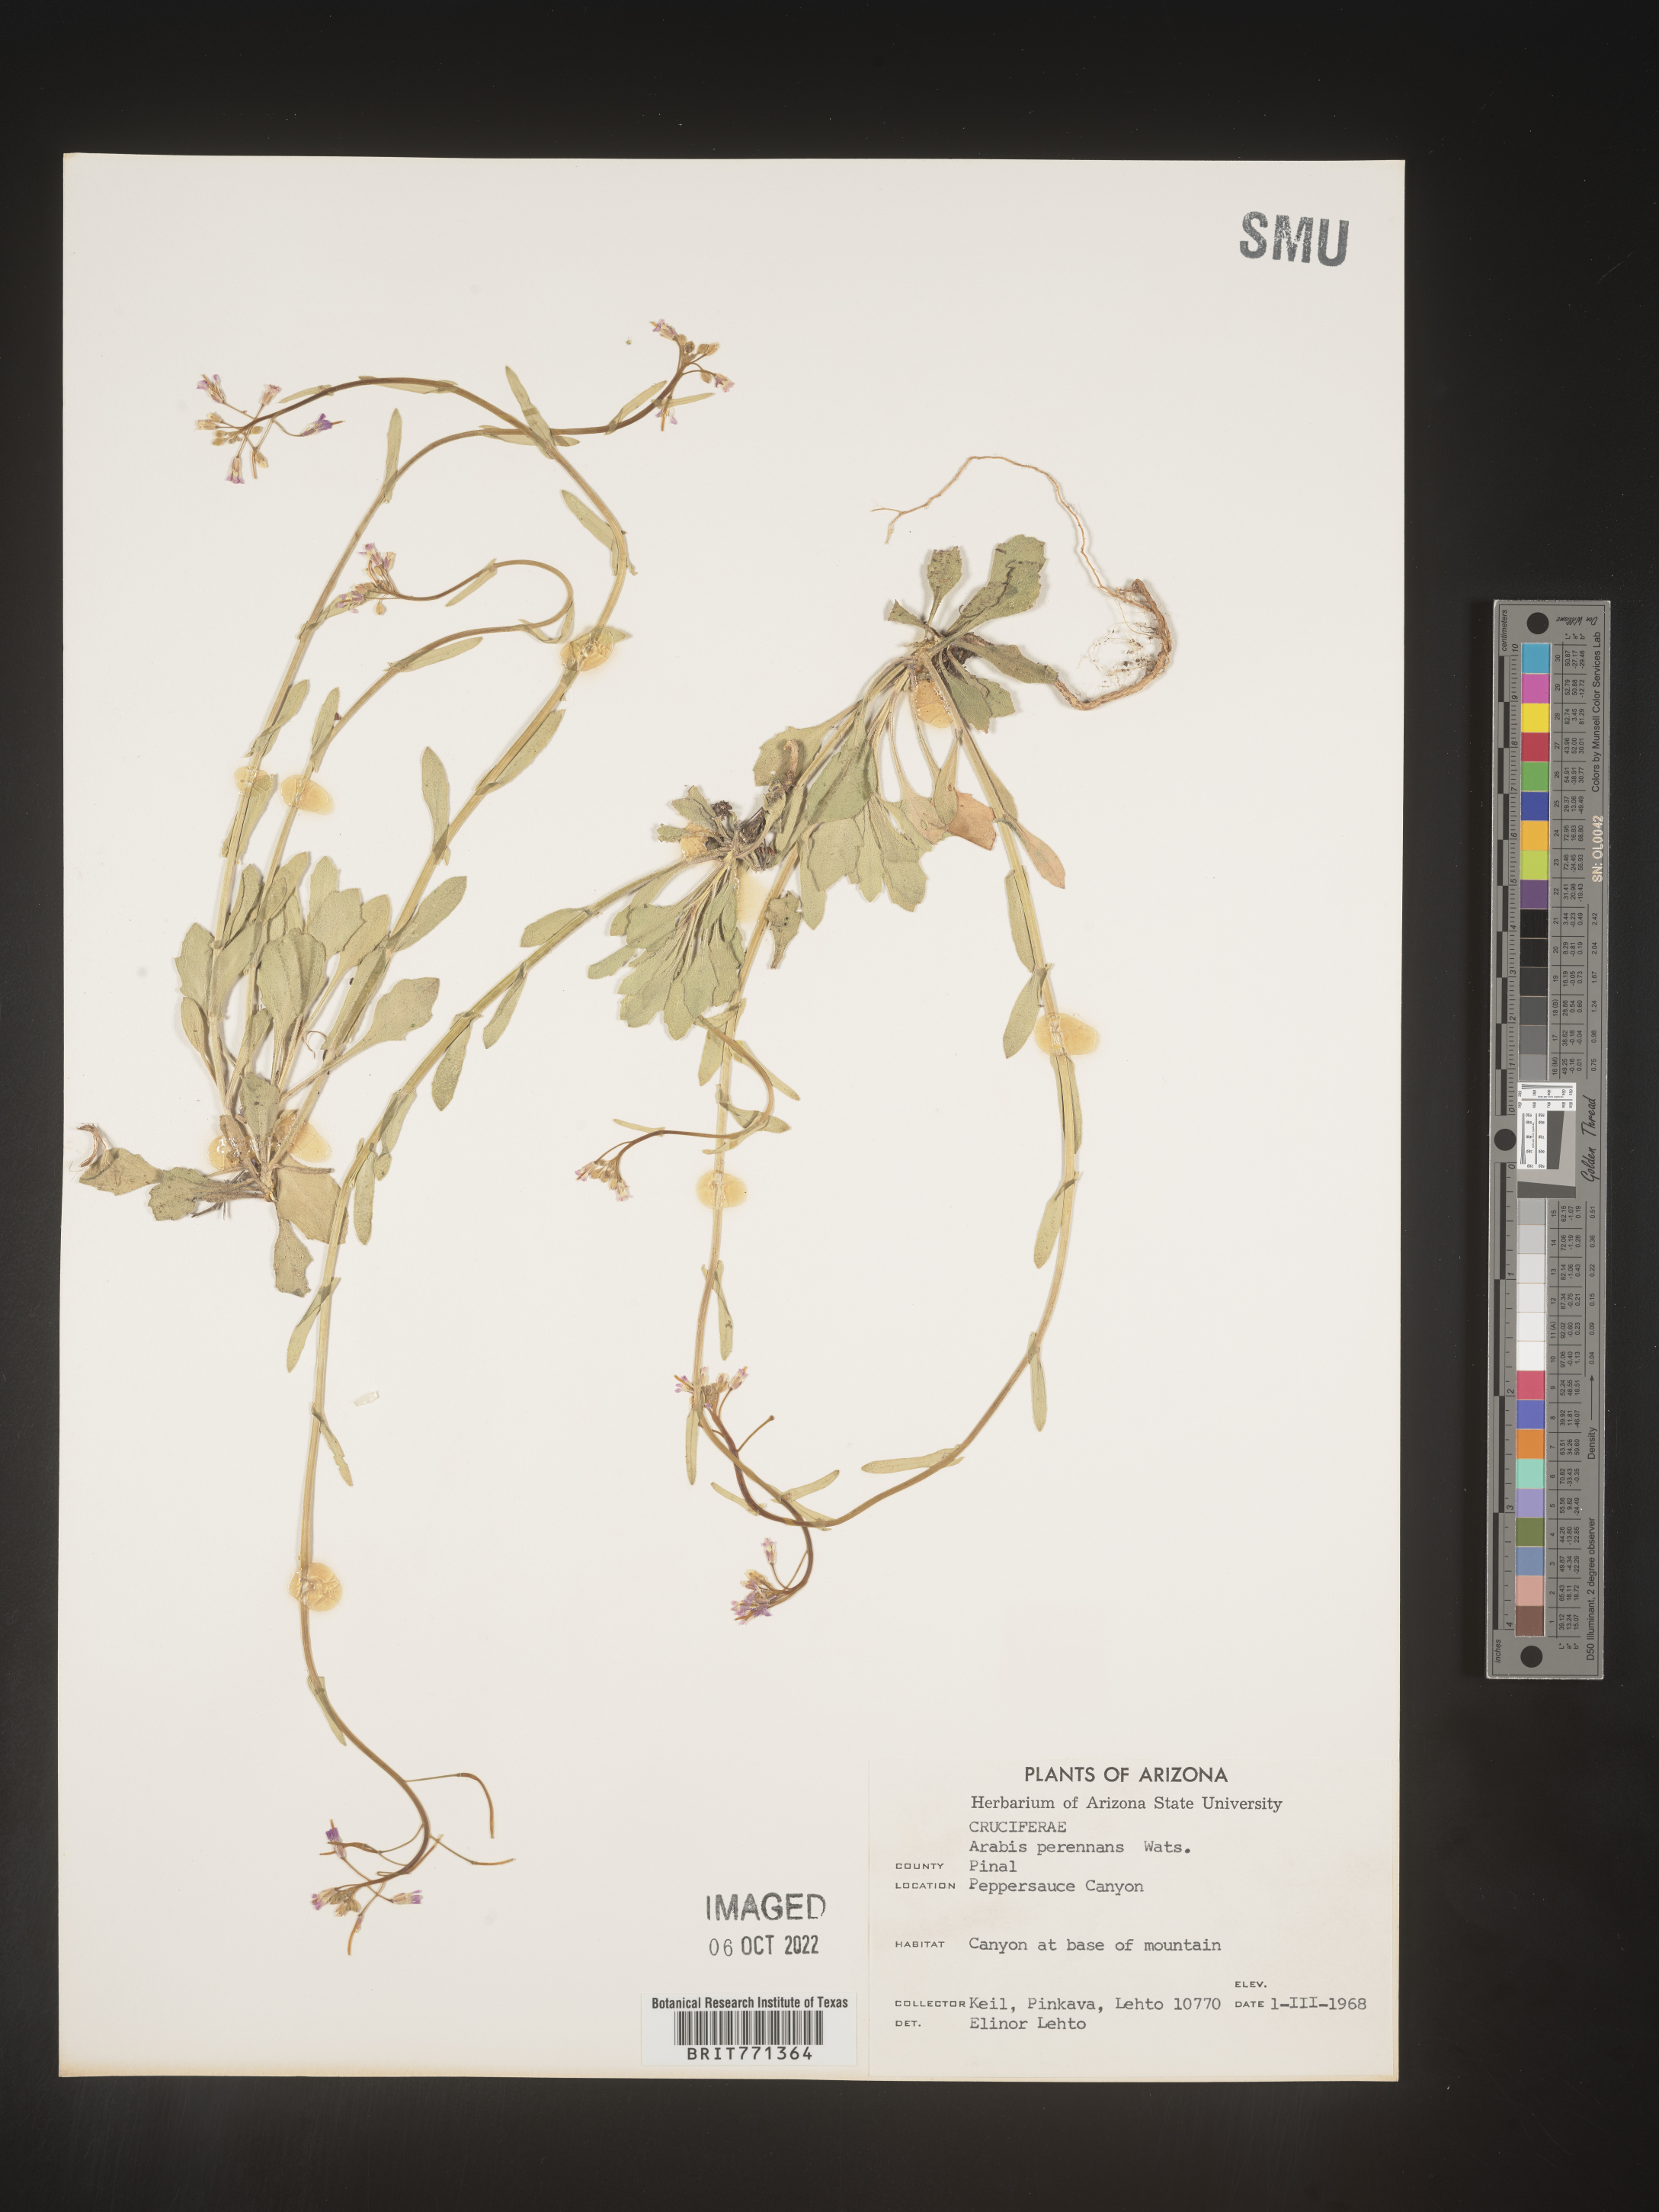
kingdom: Plantae
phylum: Tracheophyta
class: Magnoliopsida
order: Brassicales
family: Brassicaceae
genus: Arabis
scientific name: Arabis
